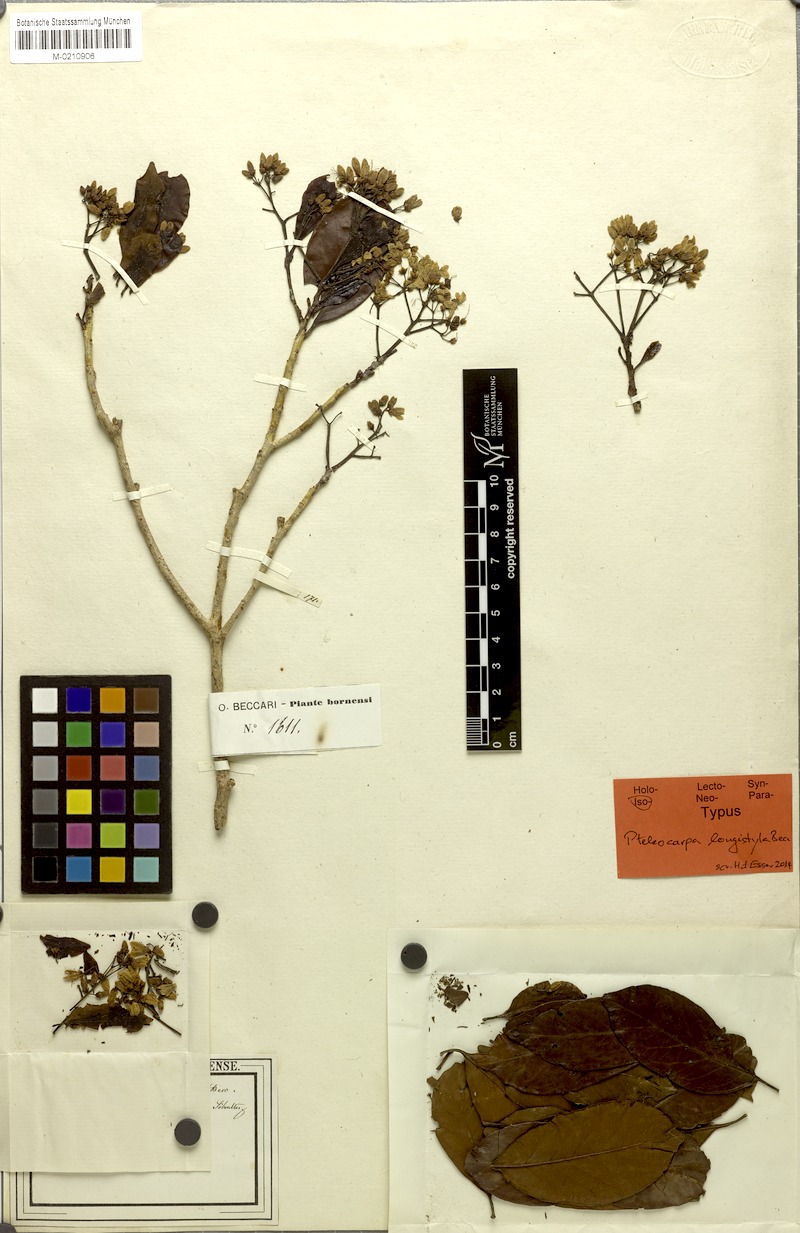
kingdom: Plantae
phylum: Tracheophyta
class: Magnoliopsida
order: Gentianales
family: Gelsemiaceae
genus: Pteleocarpa
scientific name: Pteleocarpa lamponga
